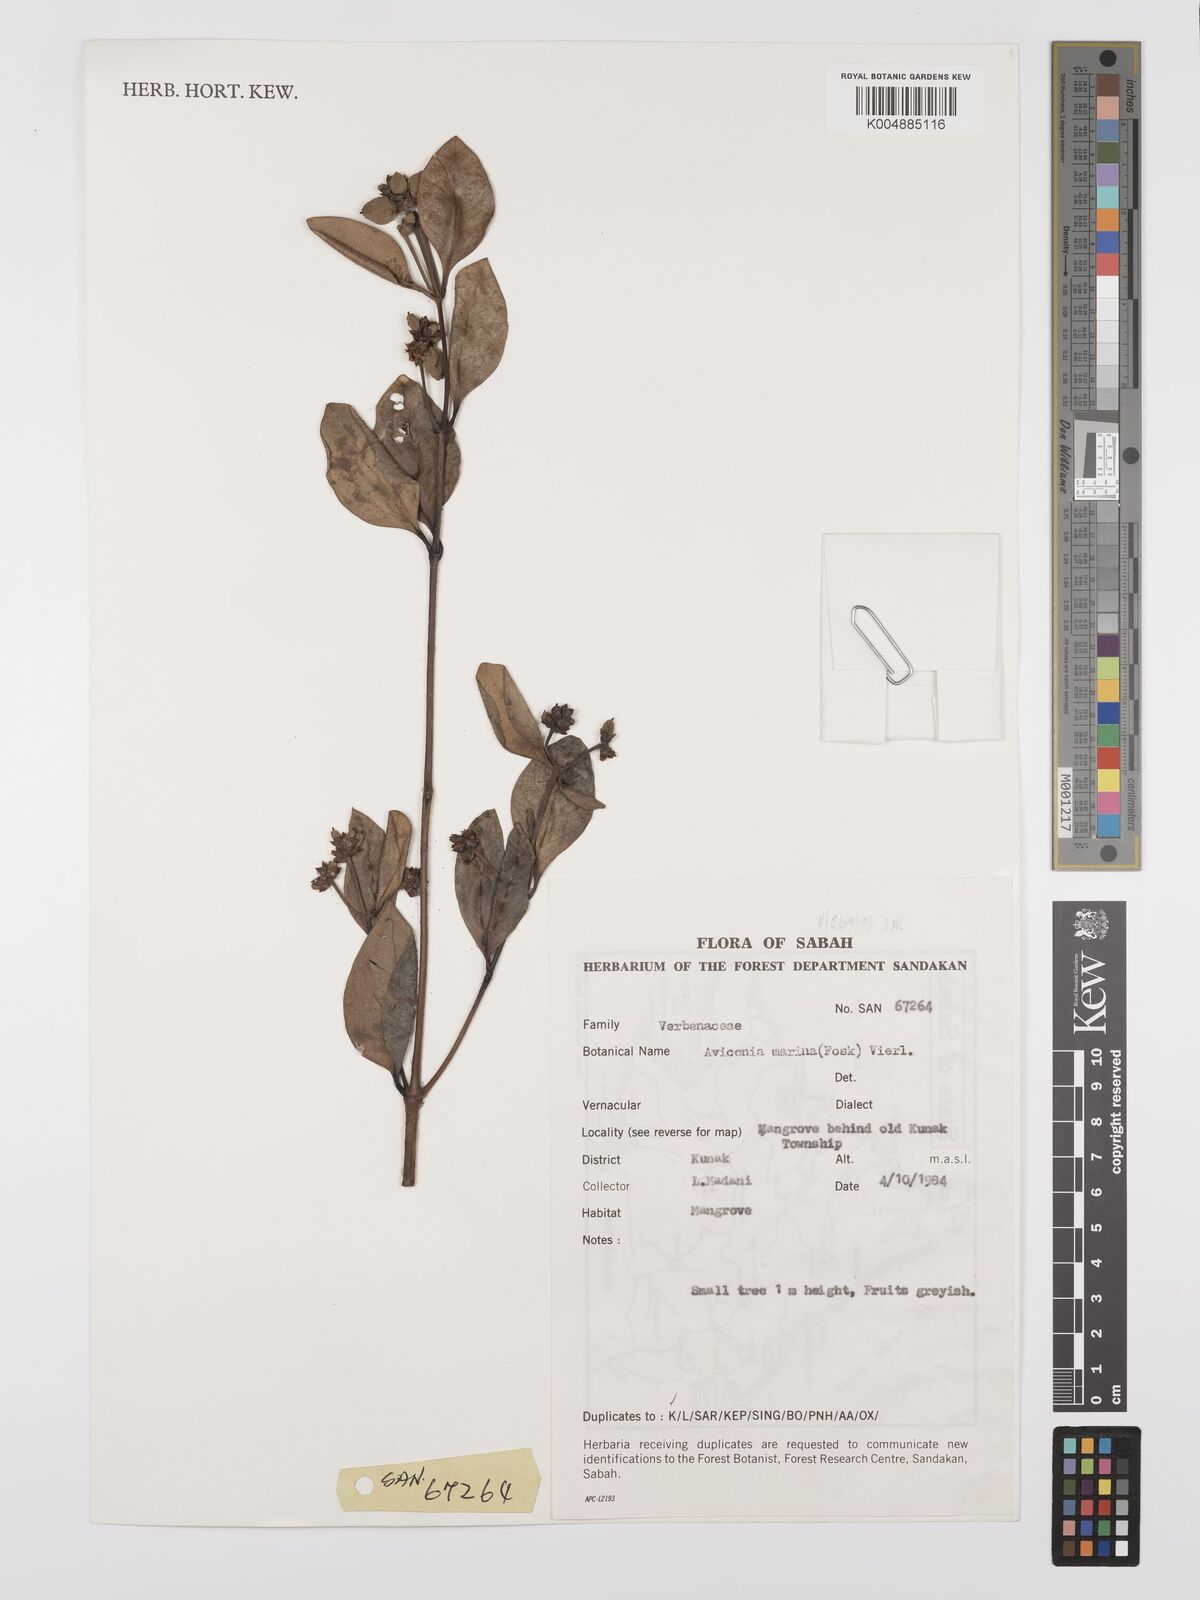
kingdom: Plantae
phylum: Tracheophyta
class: Magnoliopsida
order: Lamiales
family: Acanthaceae
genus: Avicennia
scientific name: Avicennia marina
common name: Gray mangrove
